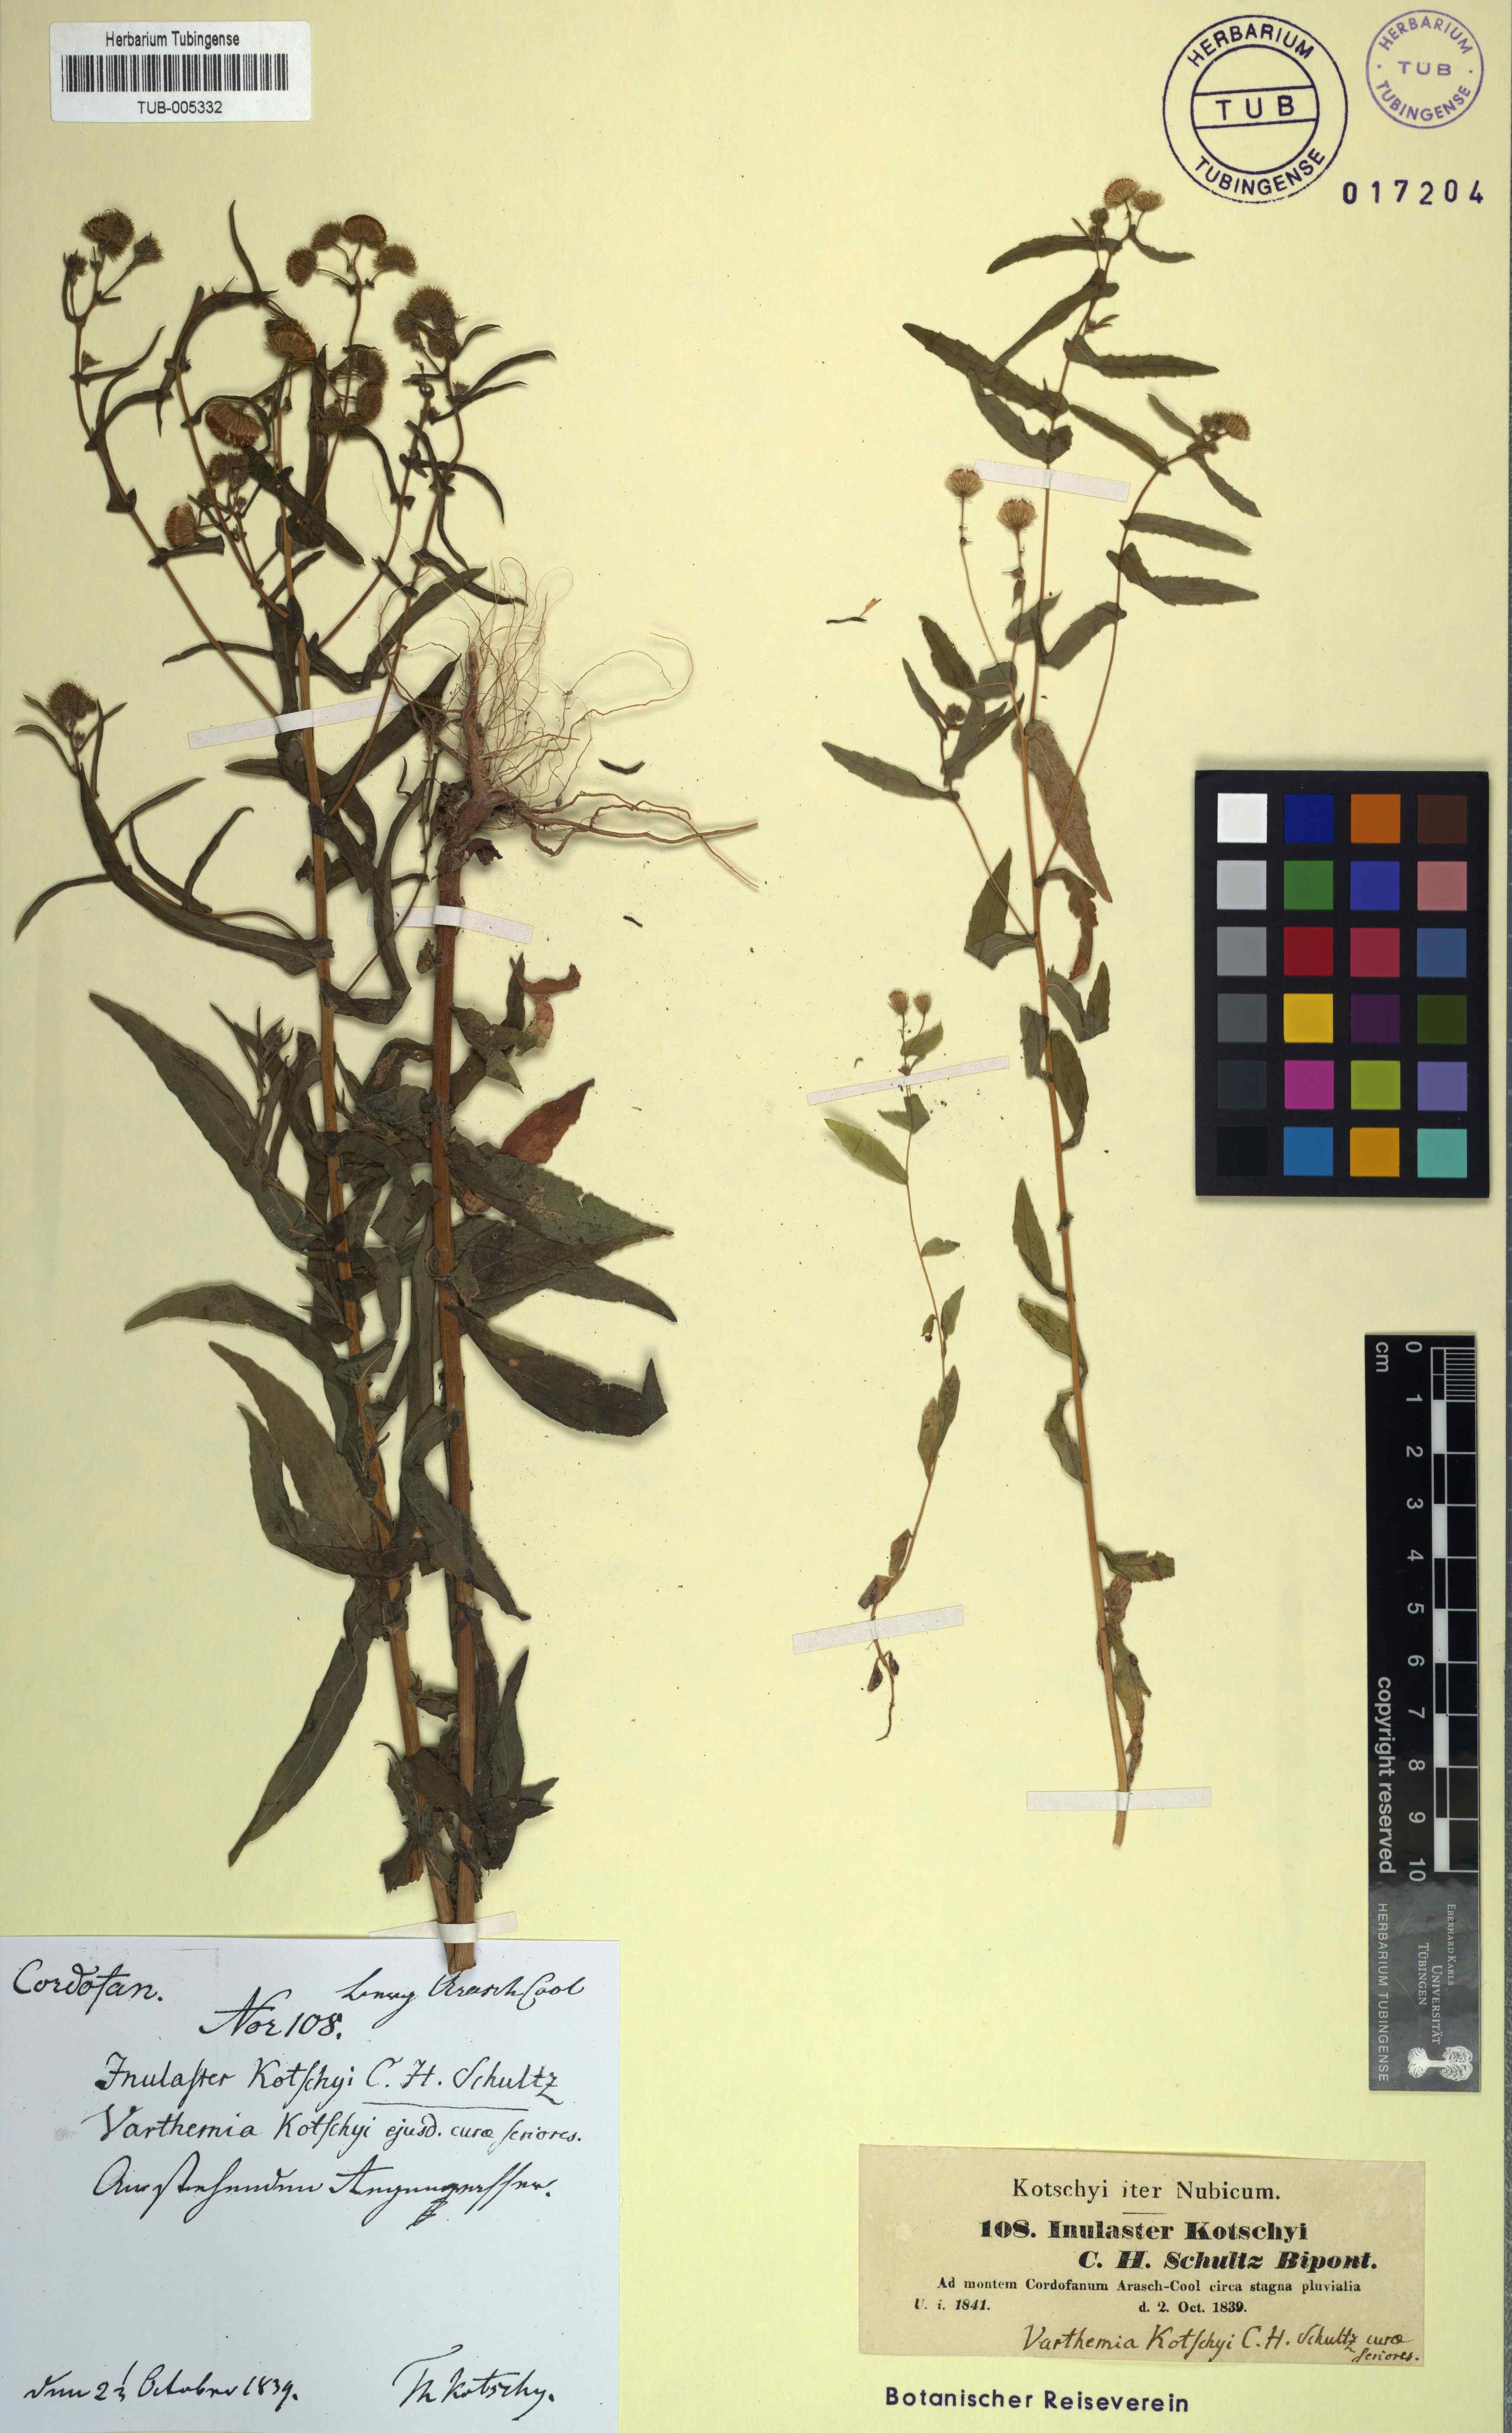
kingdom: Plantae
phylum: Tracheophyta
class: Magnoliopsida
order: Asterales
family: Asteraceae
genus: Vicoa
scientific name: Vicoa indica
